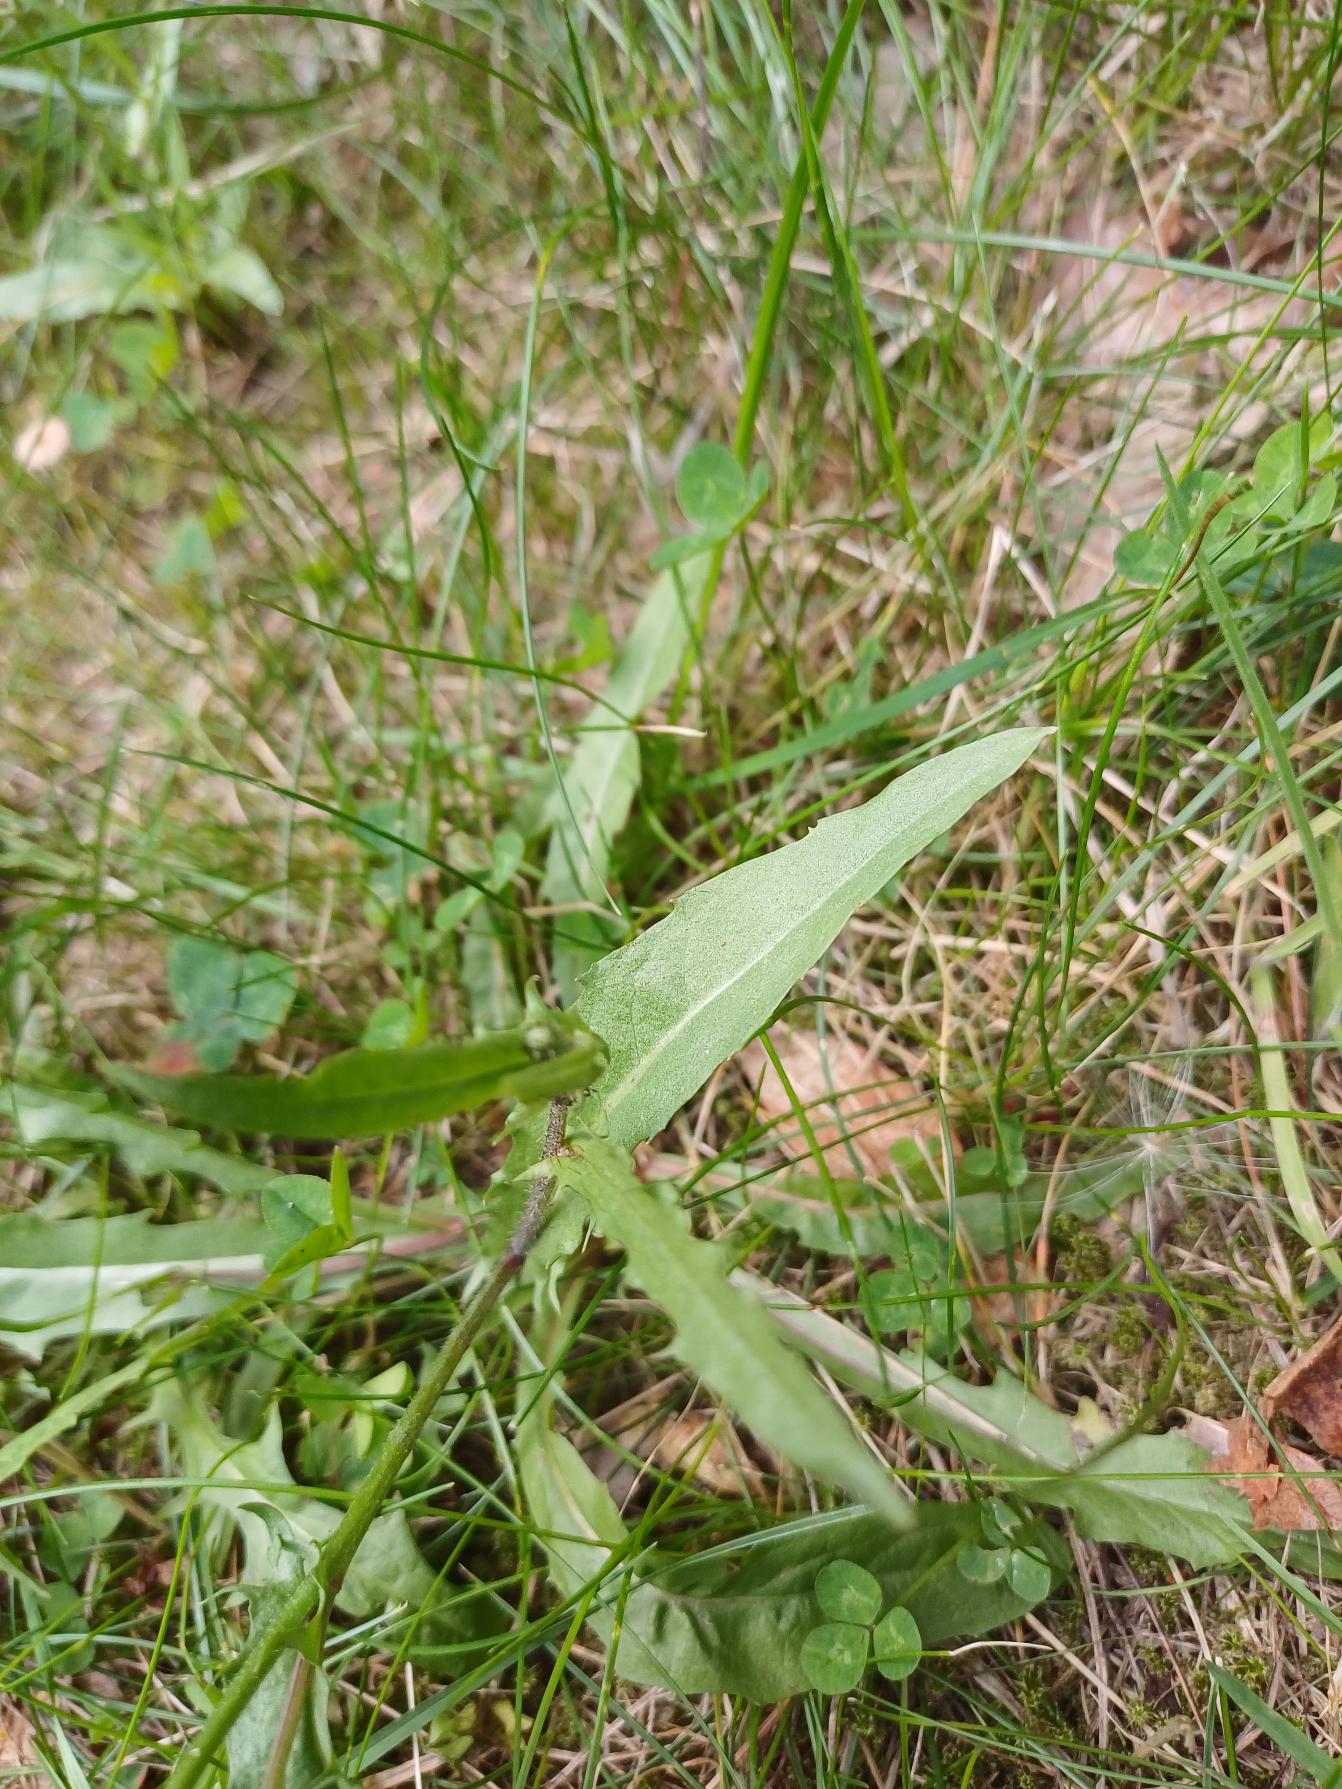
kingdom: Plantae
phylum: Tracheophyta
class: Magnoliopsida
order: Asterales
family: Asteraceae
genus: Crepis
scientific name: Crepis capillaris
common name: Grøn høgeskæg
